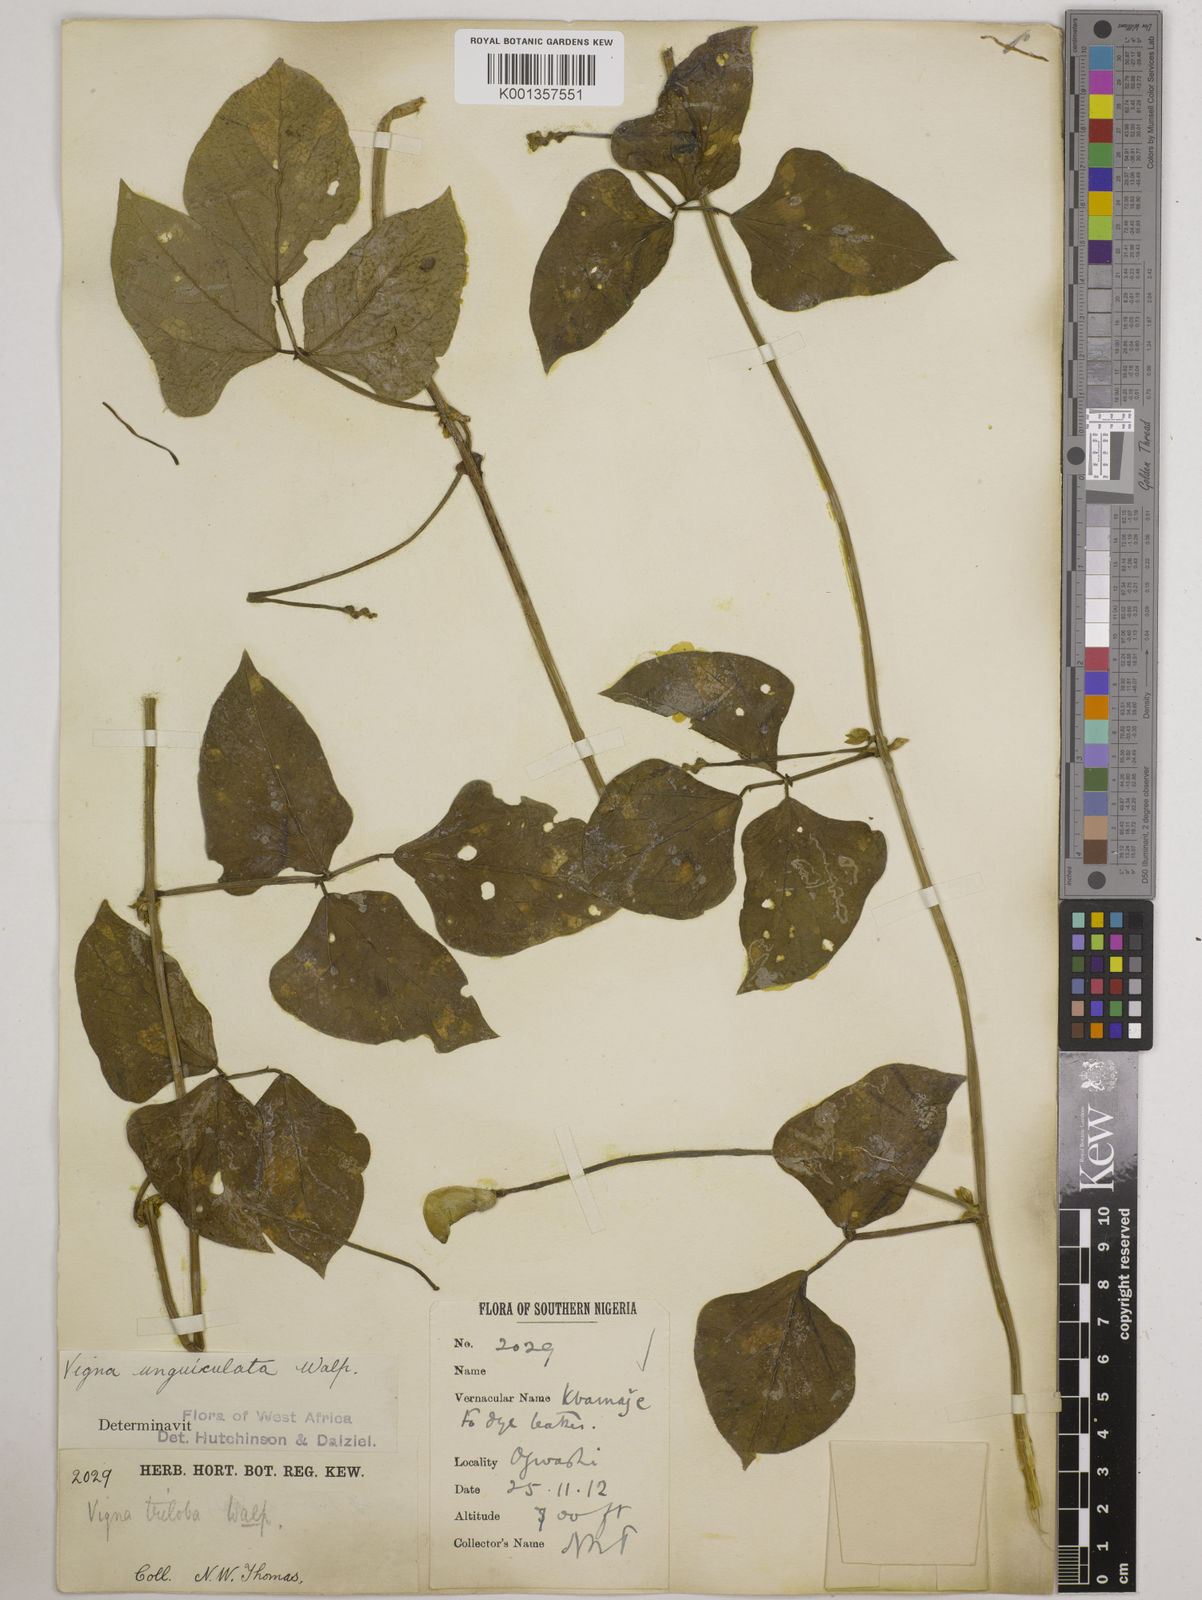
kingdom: Plantae
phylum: Tracheophyta
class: Magnoliopsida
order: Fabales
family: Fabaceae
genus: Vigna
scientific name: Vigna
